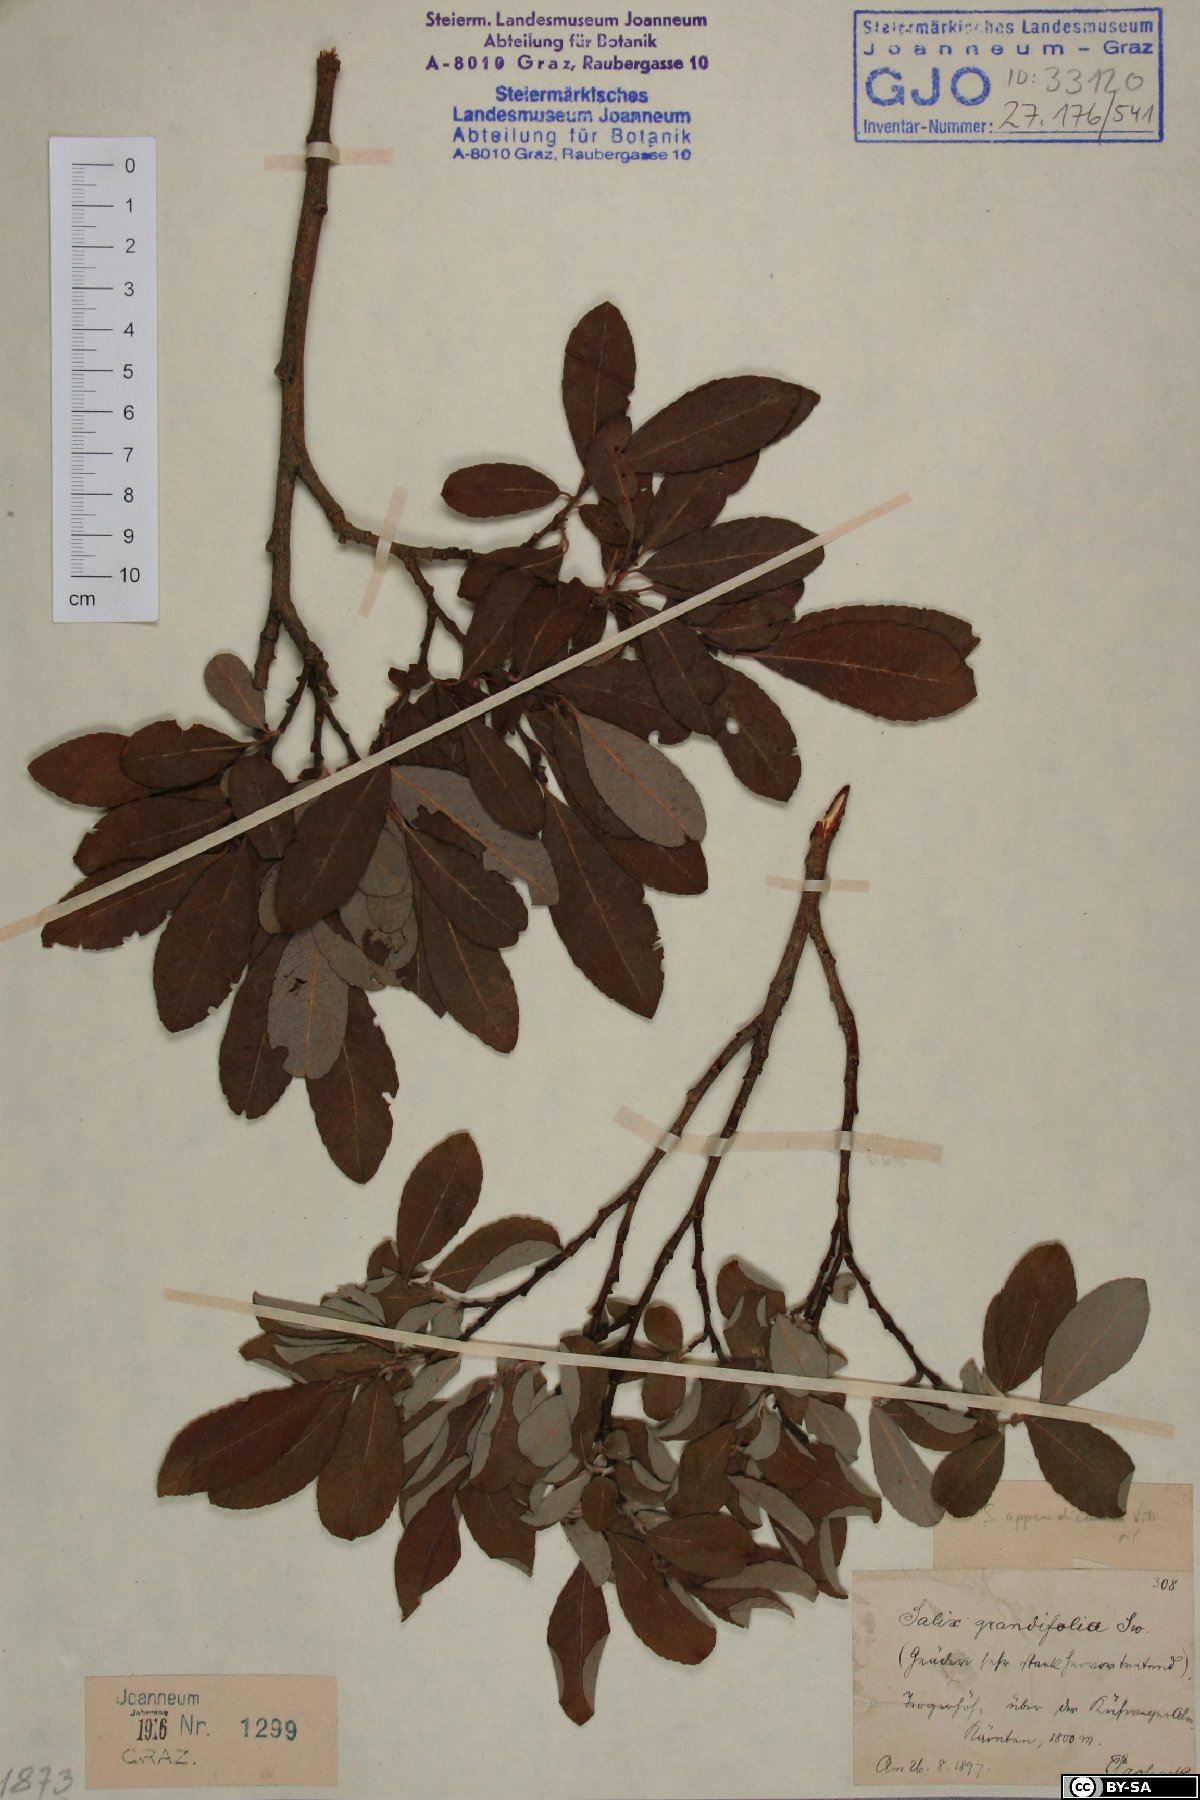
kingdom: Plantae
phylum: Tracheophyta
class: Magnoliopsida
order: Malpighiales
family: Salicaceae
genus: Salix
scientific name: Salix appendiculata
